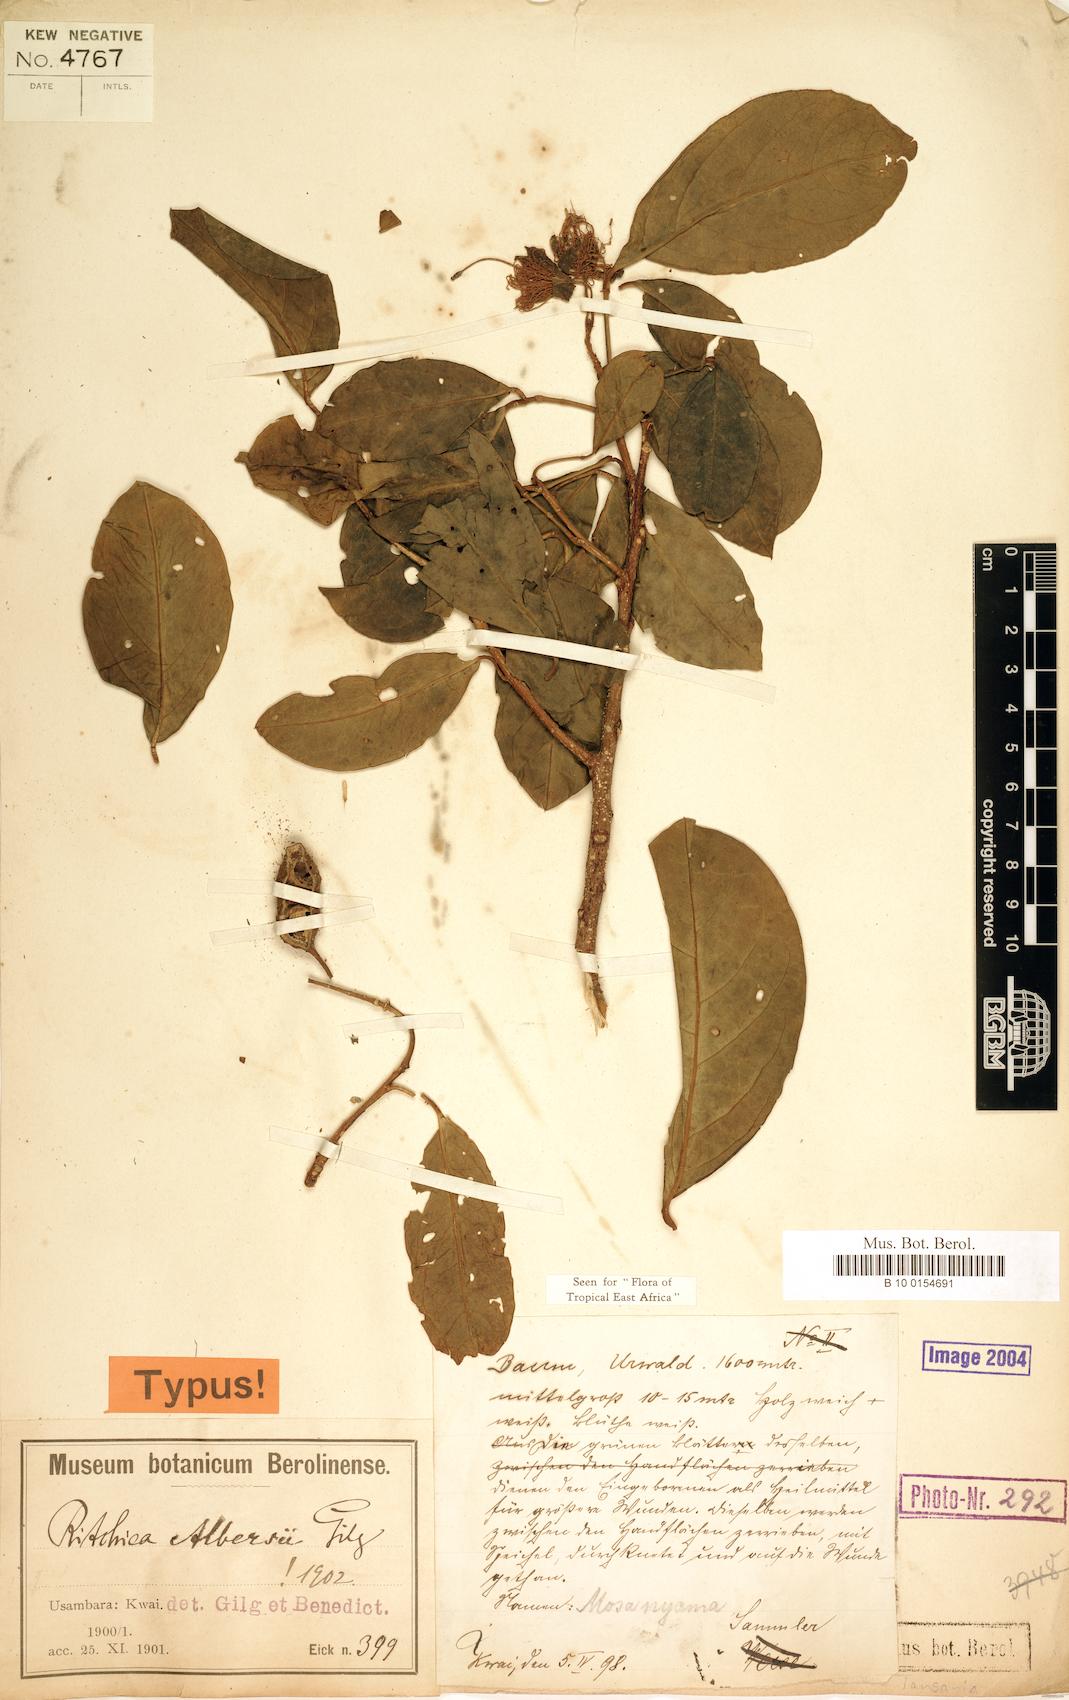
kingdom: Plantae
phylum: Tracheophyta
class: Magnoliopsida
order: Brassicales
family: Capparaceae
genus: Ritchiea
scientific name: Ritchiea albersii
